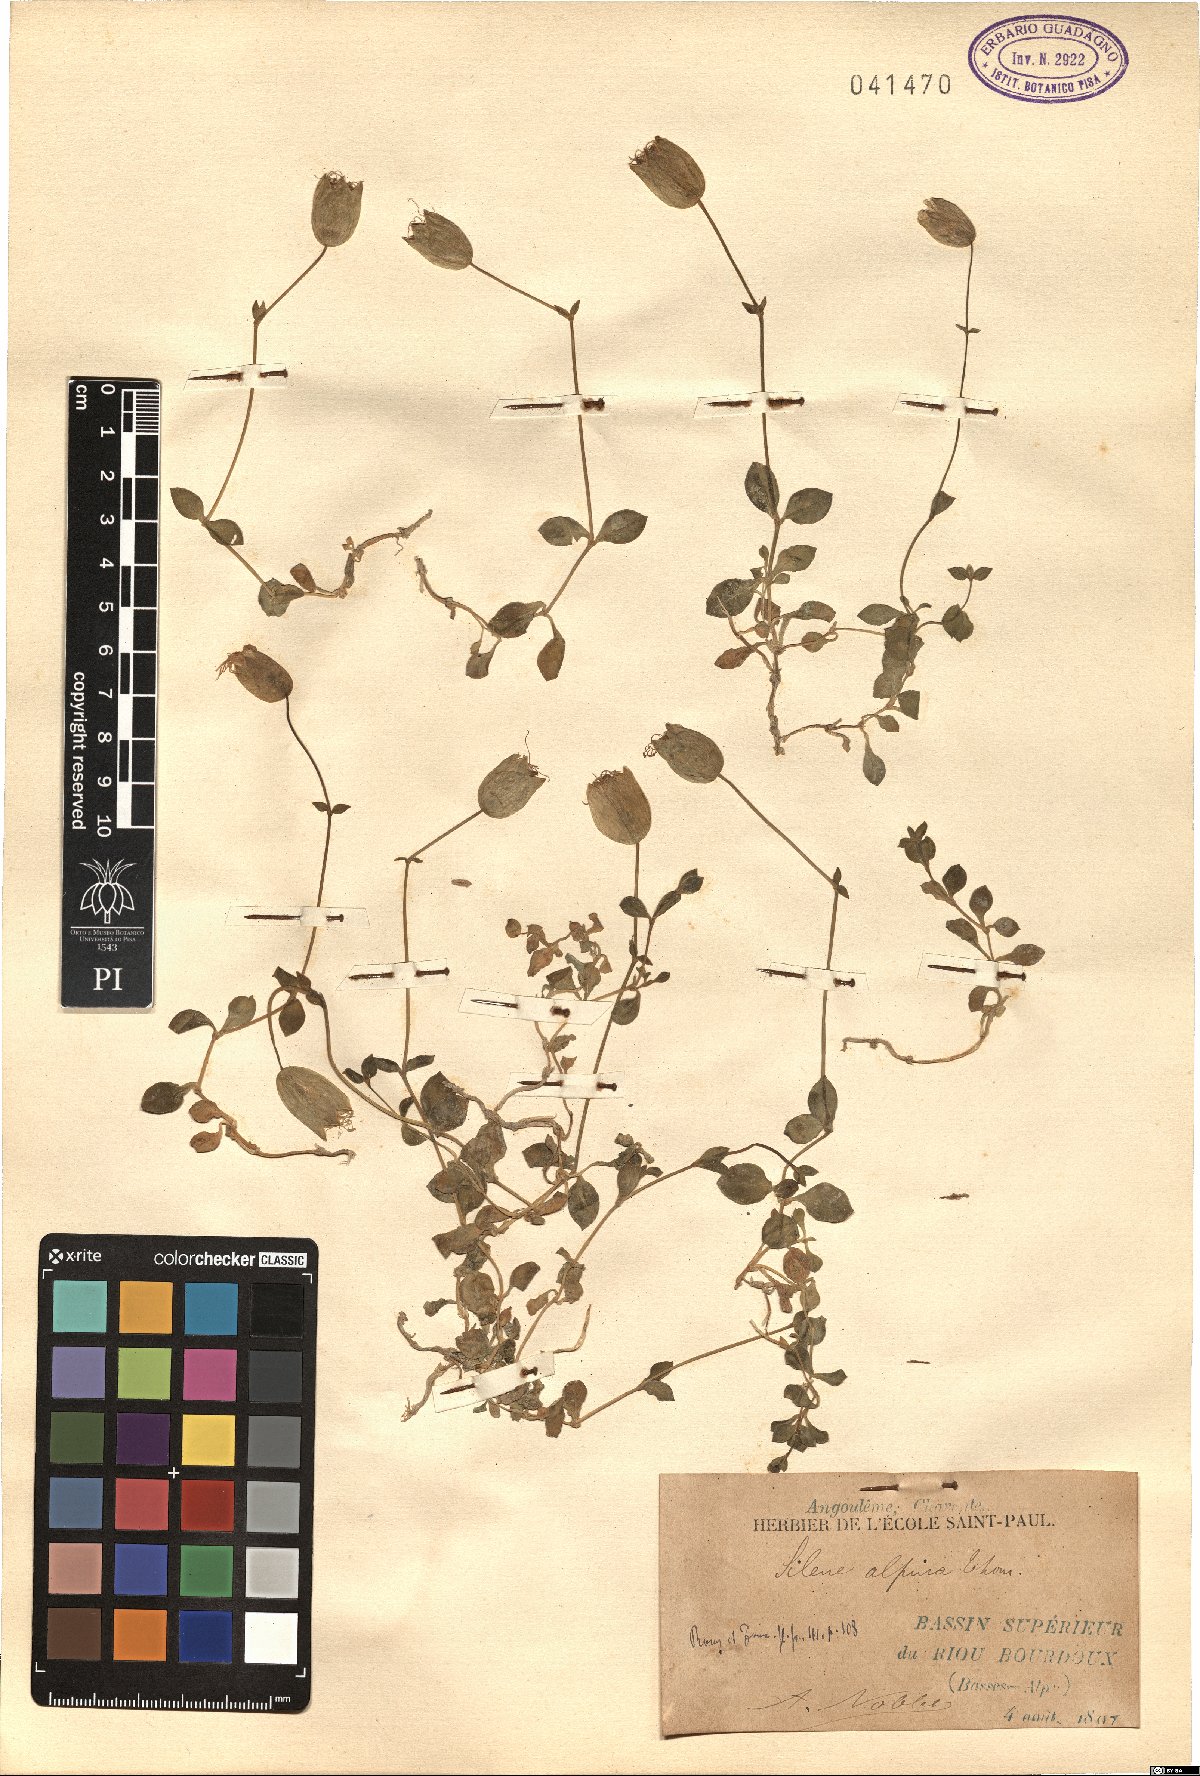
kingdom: Plantae
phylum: Tracheophyta
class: Magnoliopsida
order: Caryophyllales
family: Caryophyllaceae
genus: Silene
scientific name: Silene vulgaris
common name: Bladder campion
